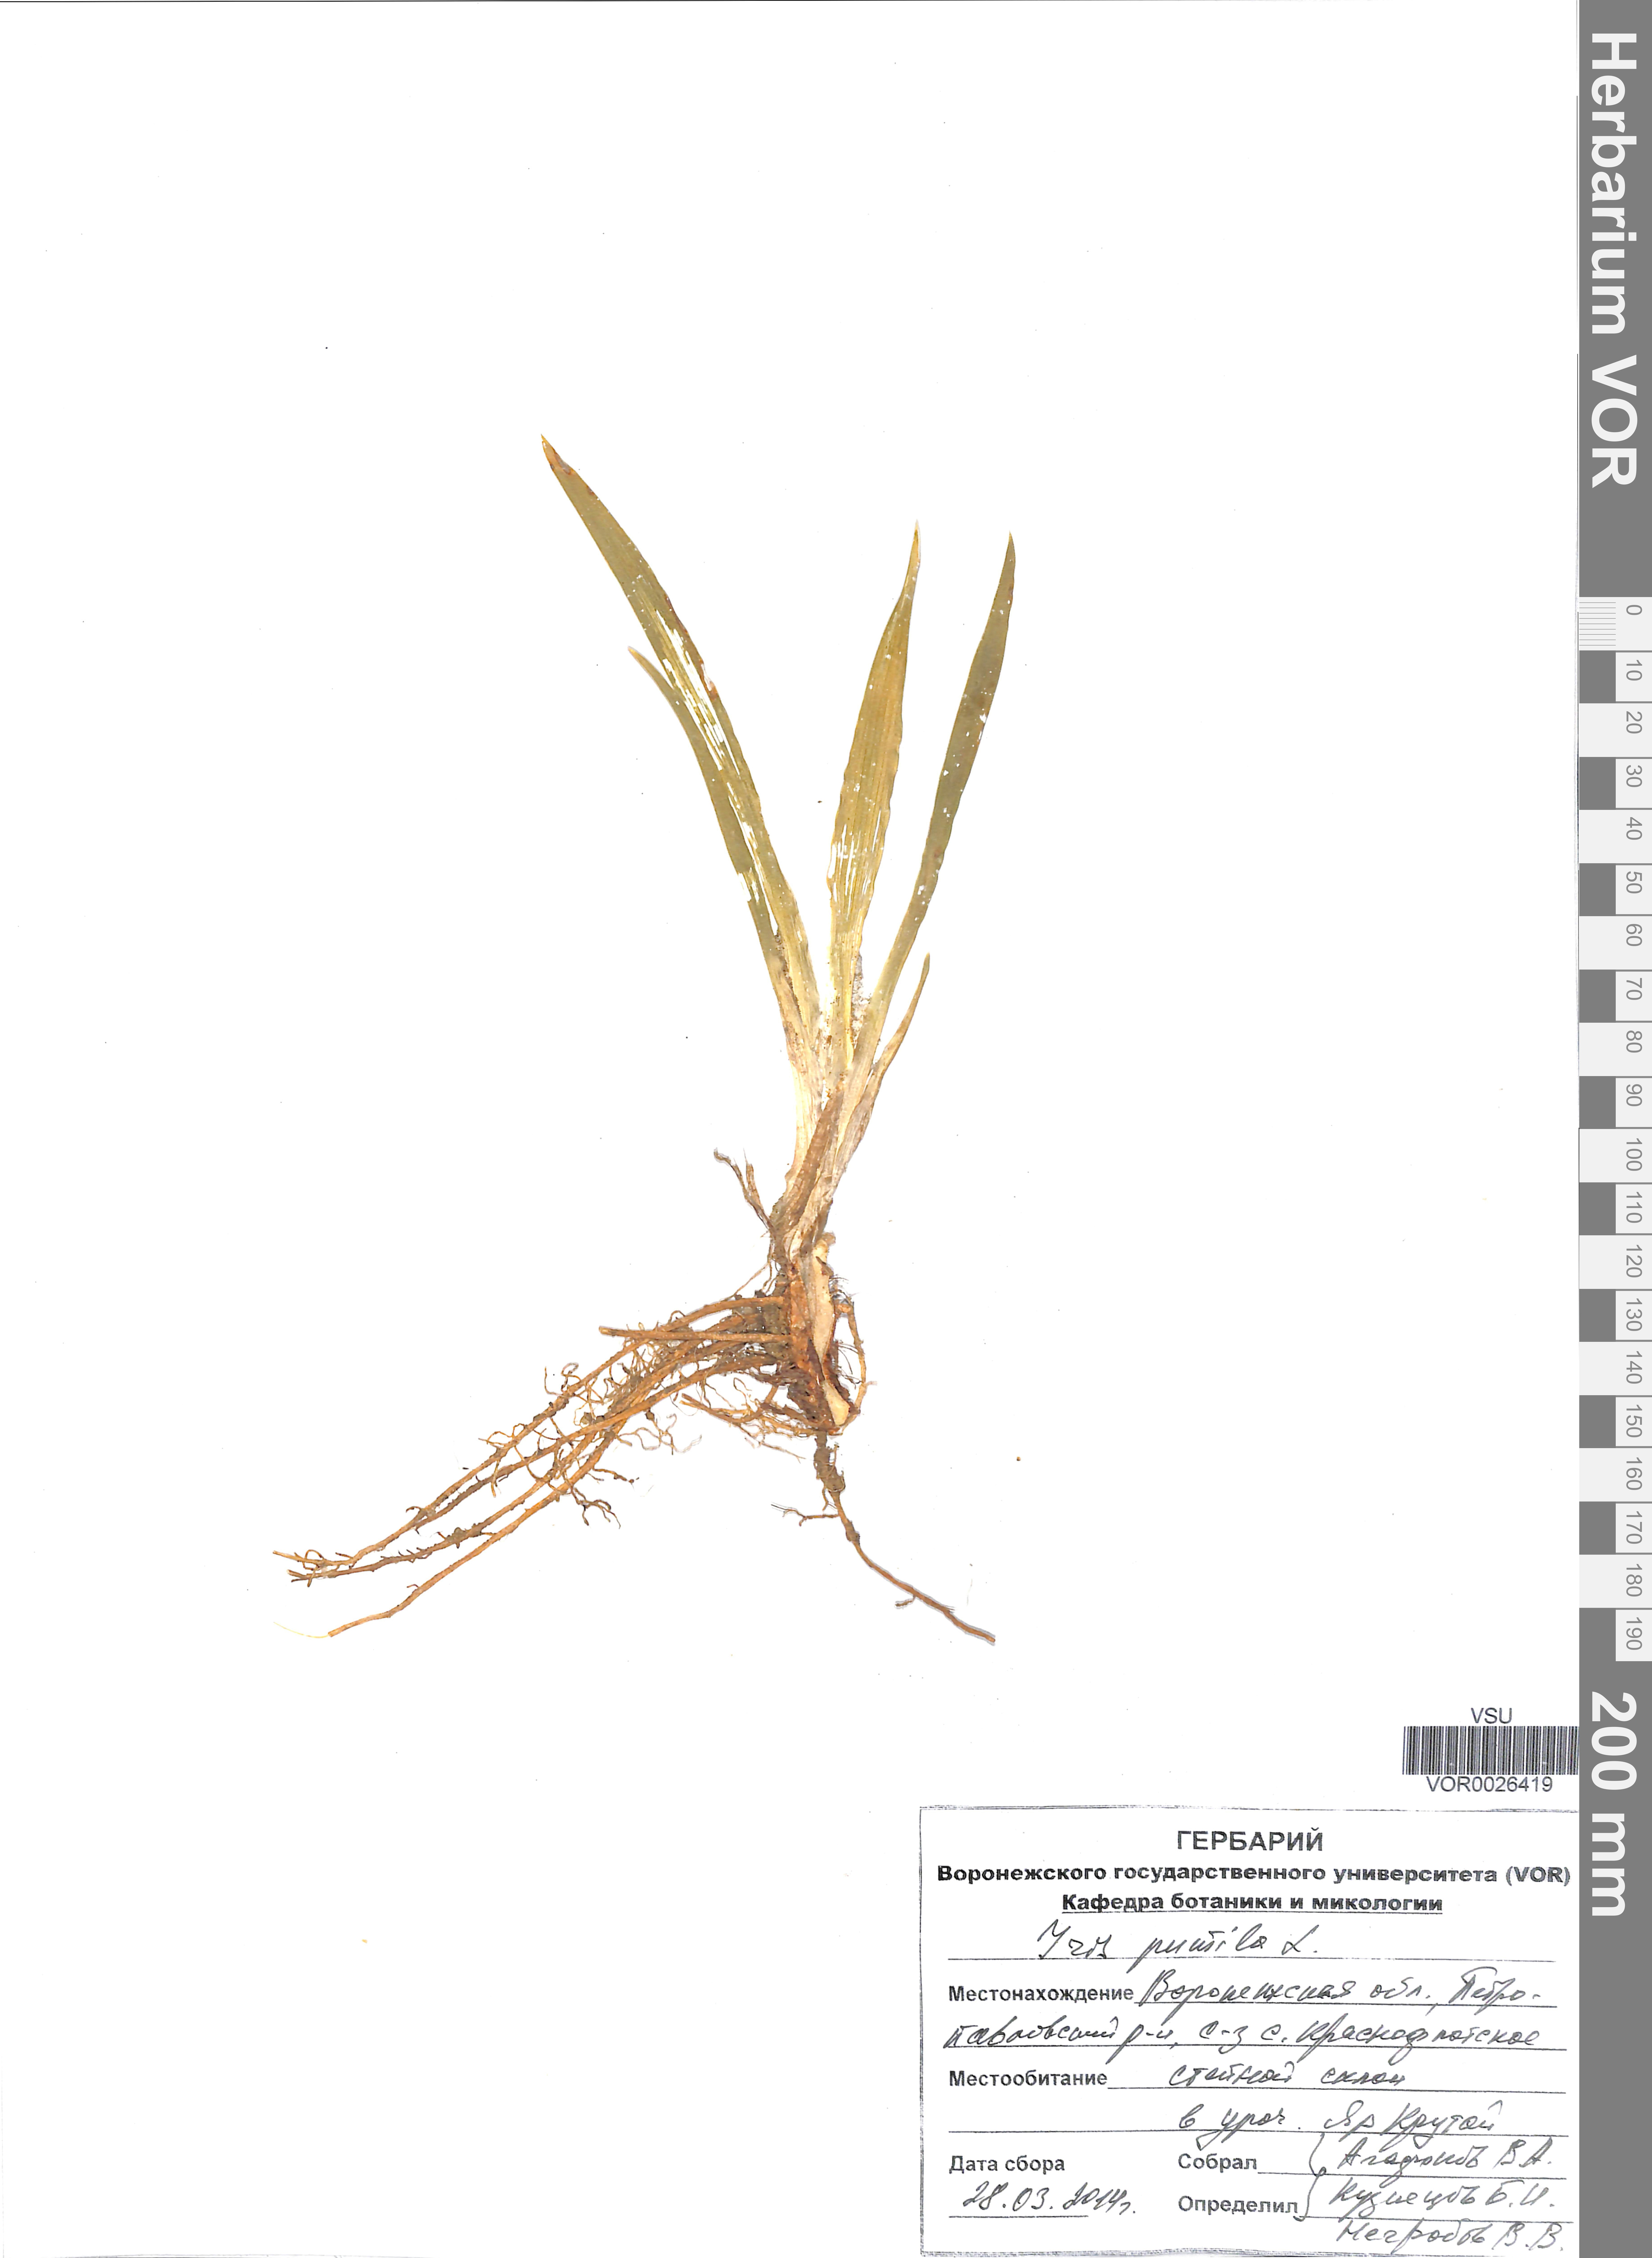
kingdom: Plantae
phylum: Tracheophyta
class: Liliopsida
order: Asparagales
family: Iridaceae
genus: Iris
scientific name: Iris pumila
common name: Dwarf iris
